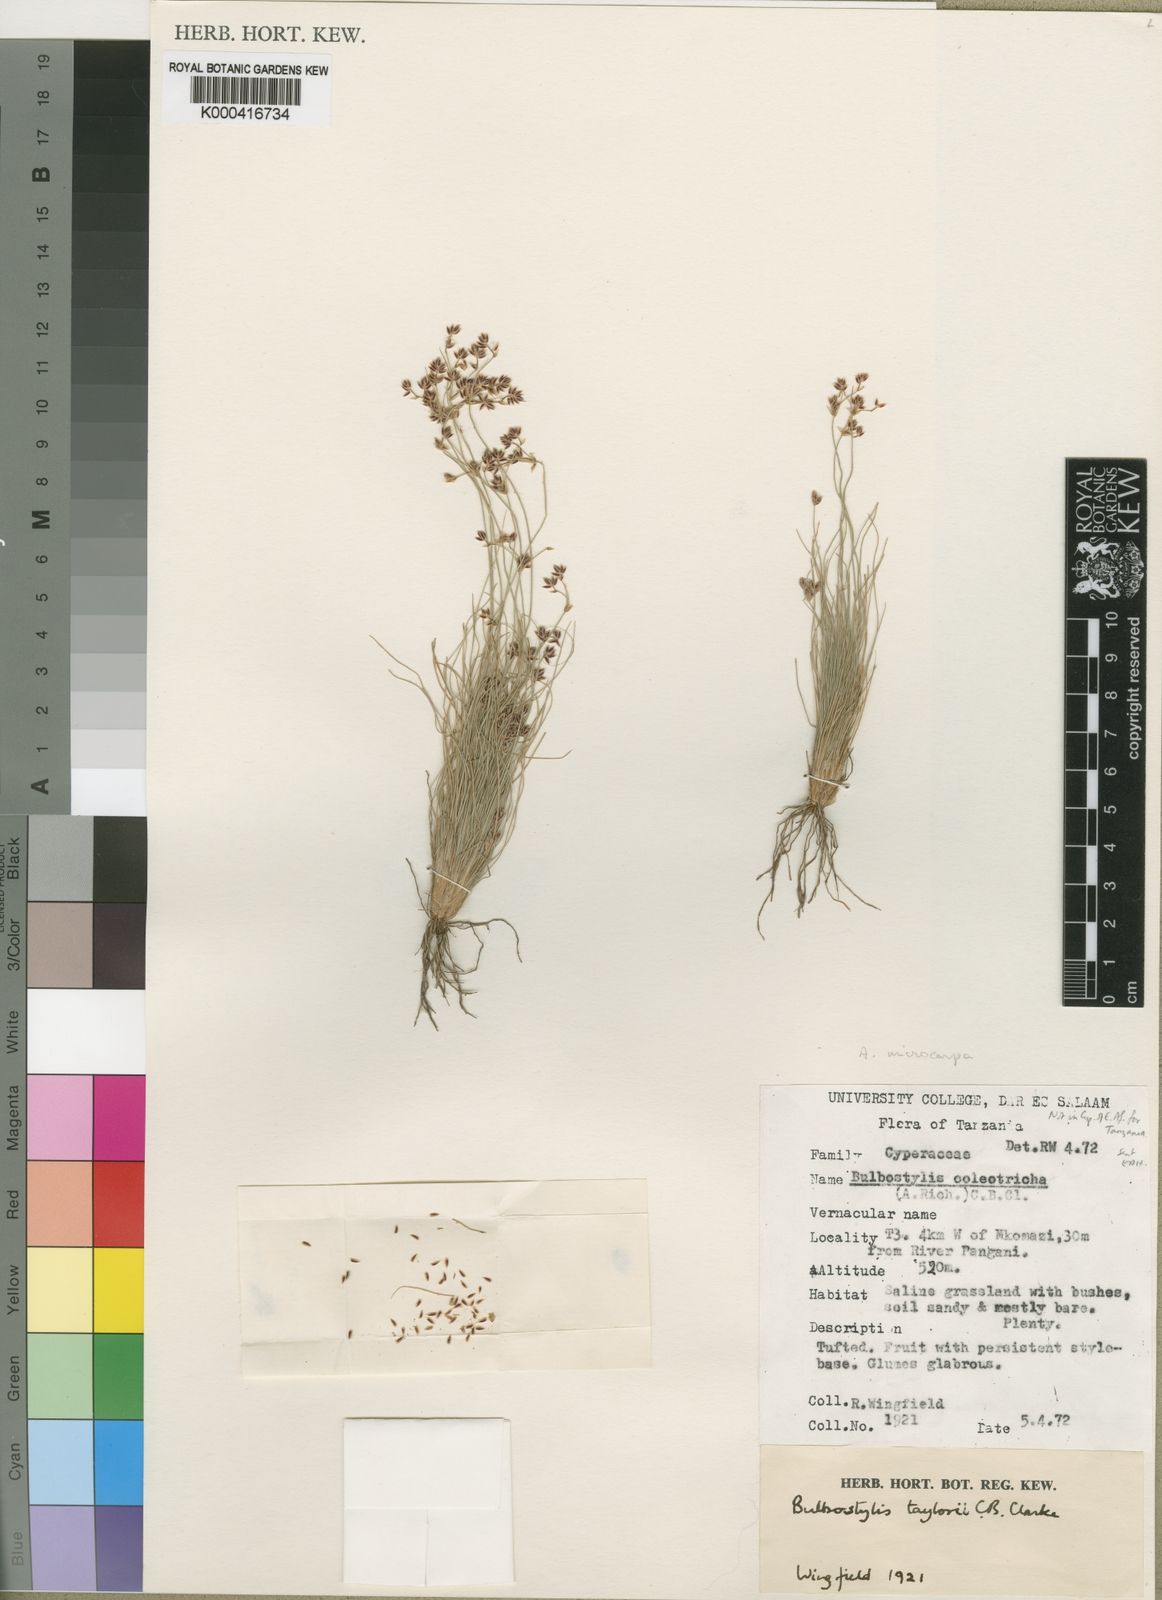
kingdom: Plantae
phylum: Tracheophyta
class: Liliopsida
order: Poales
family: Cyperaceae
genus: Bulbostylis
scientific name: Bulbostylis taylorii
